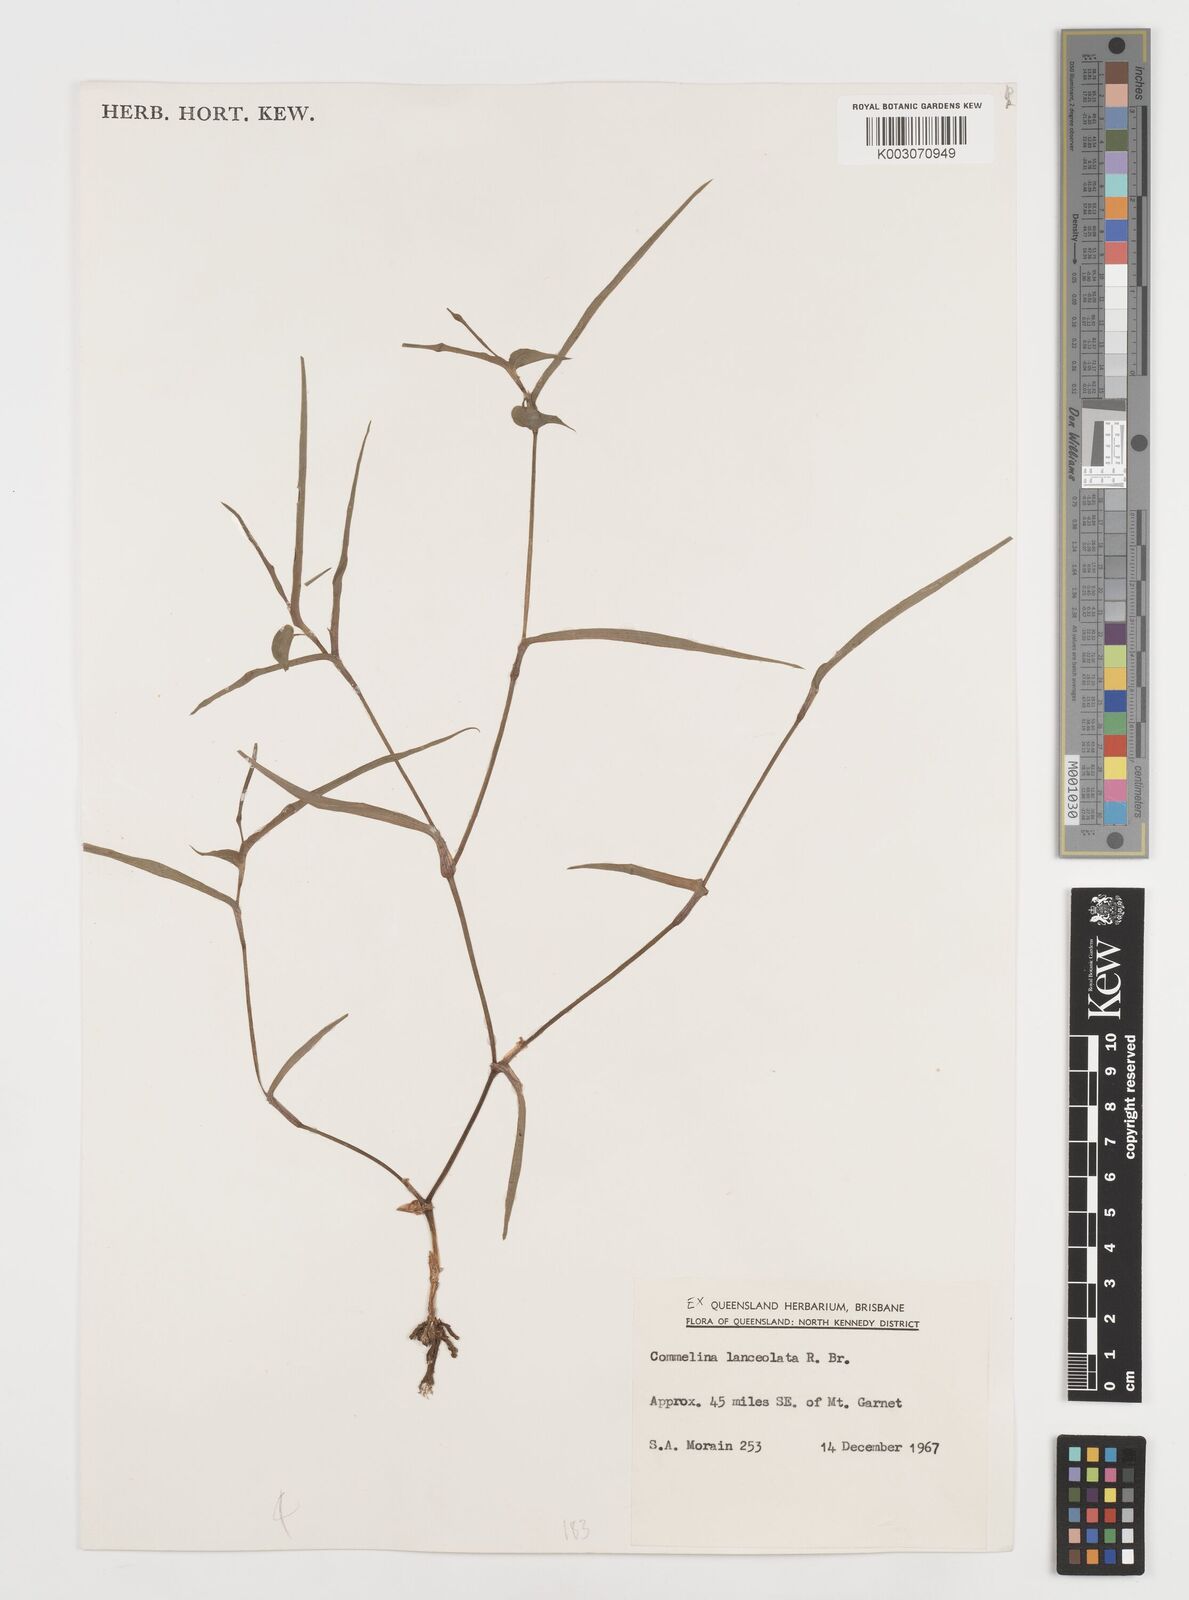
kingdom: Plantae
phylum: Tracheophyta
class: Liliopsida
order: Commelinales
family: Commelinaceae
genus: Commelina
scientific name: Commelina lanceolata
